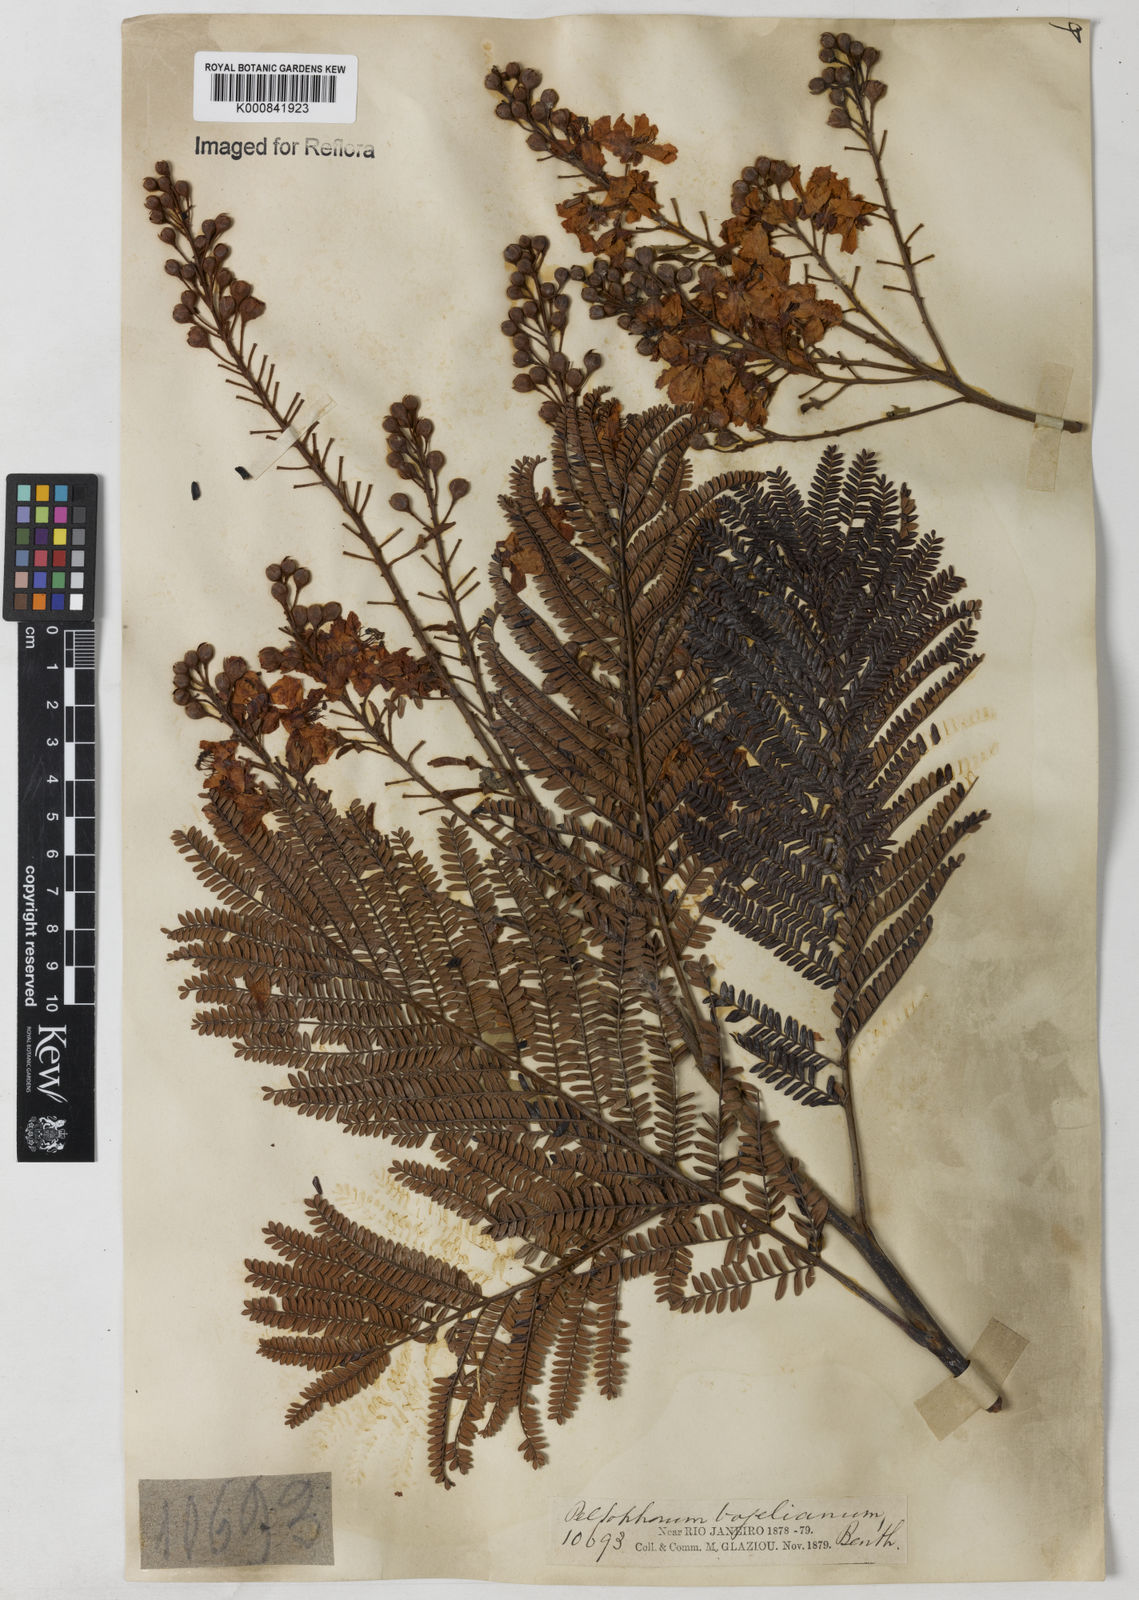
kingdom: Plantae
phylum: Tracheophyta
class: Magnoliopsida
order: Fabales
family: Fabaceae
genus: Peltophorum
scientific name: Peltophorum dubium
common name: Horsebush
